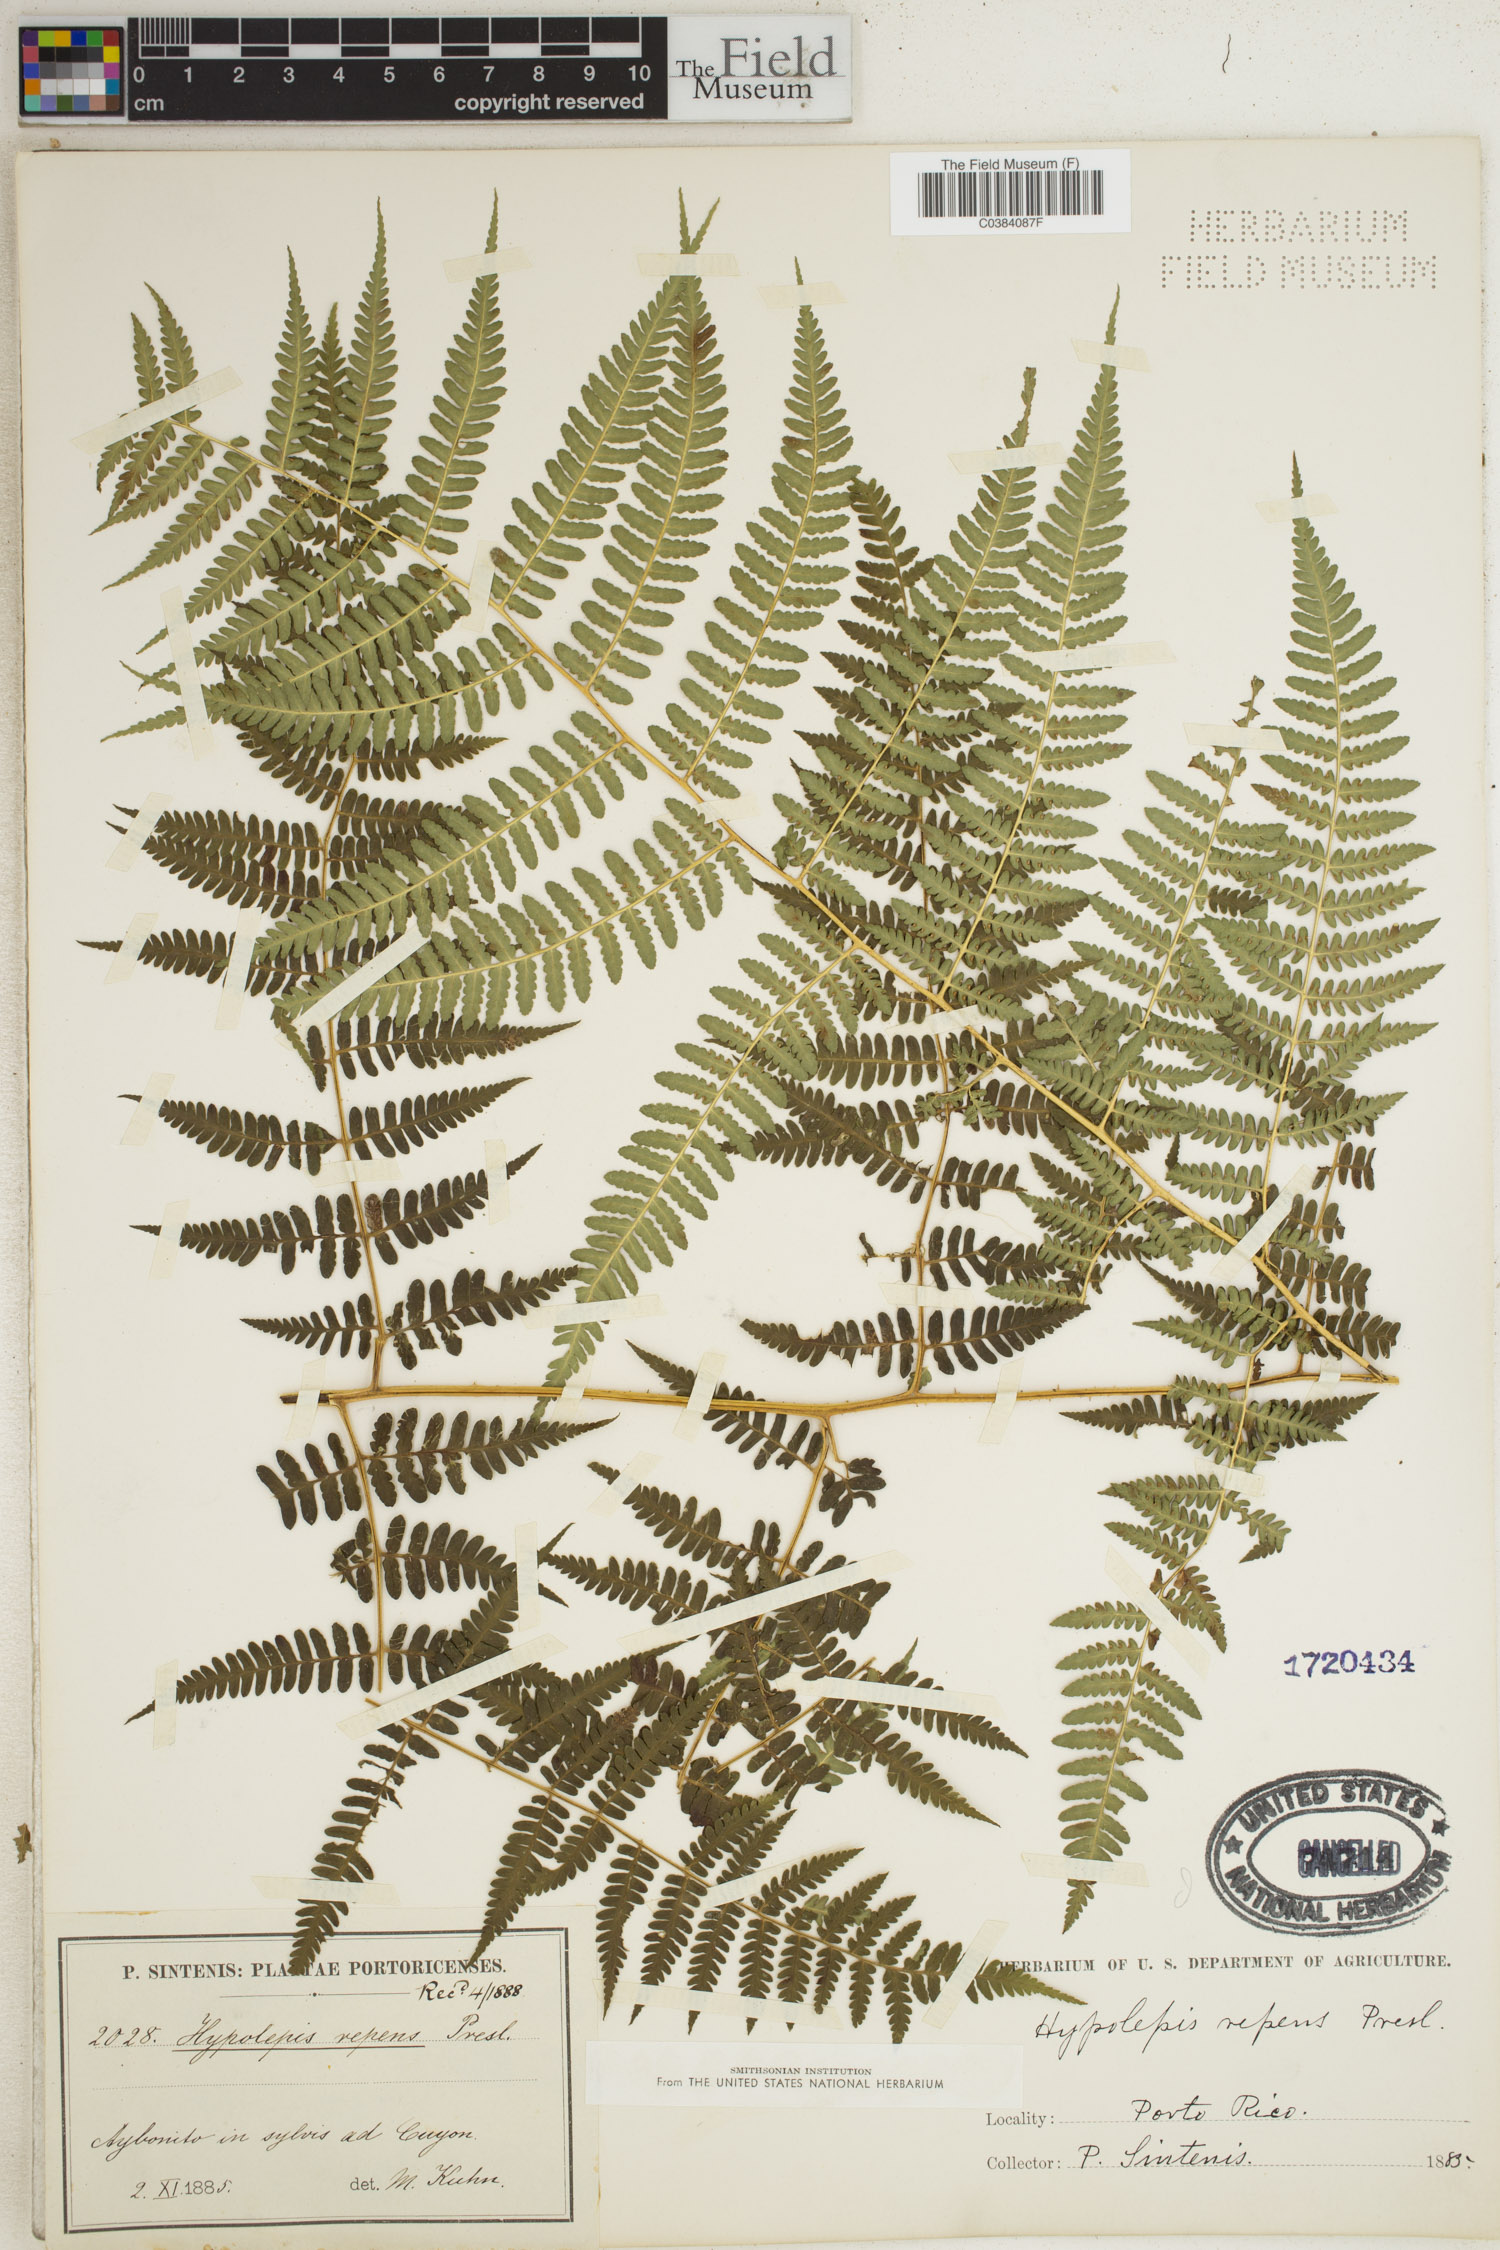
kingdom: Plantae
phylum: Tracheophyta
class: Polypodiopsida
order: Polypodiales
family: Dennstaedtiaceae
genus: Hypolepis
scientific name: Hypolepis repens
